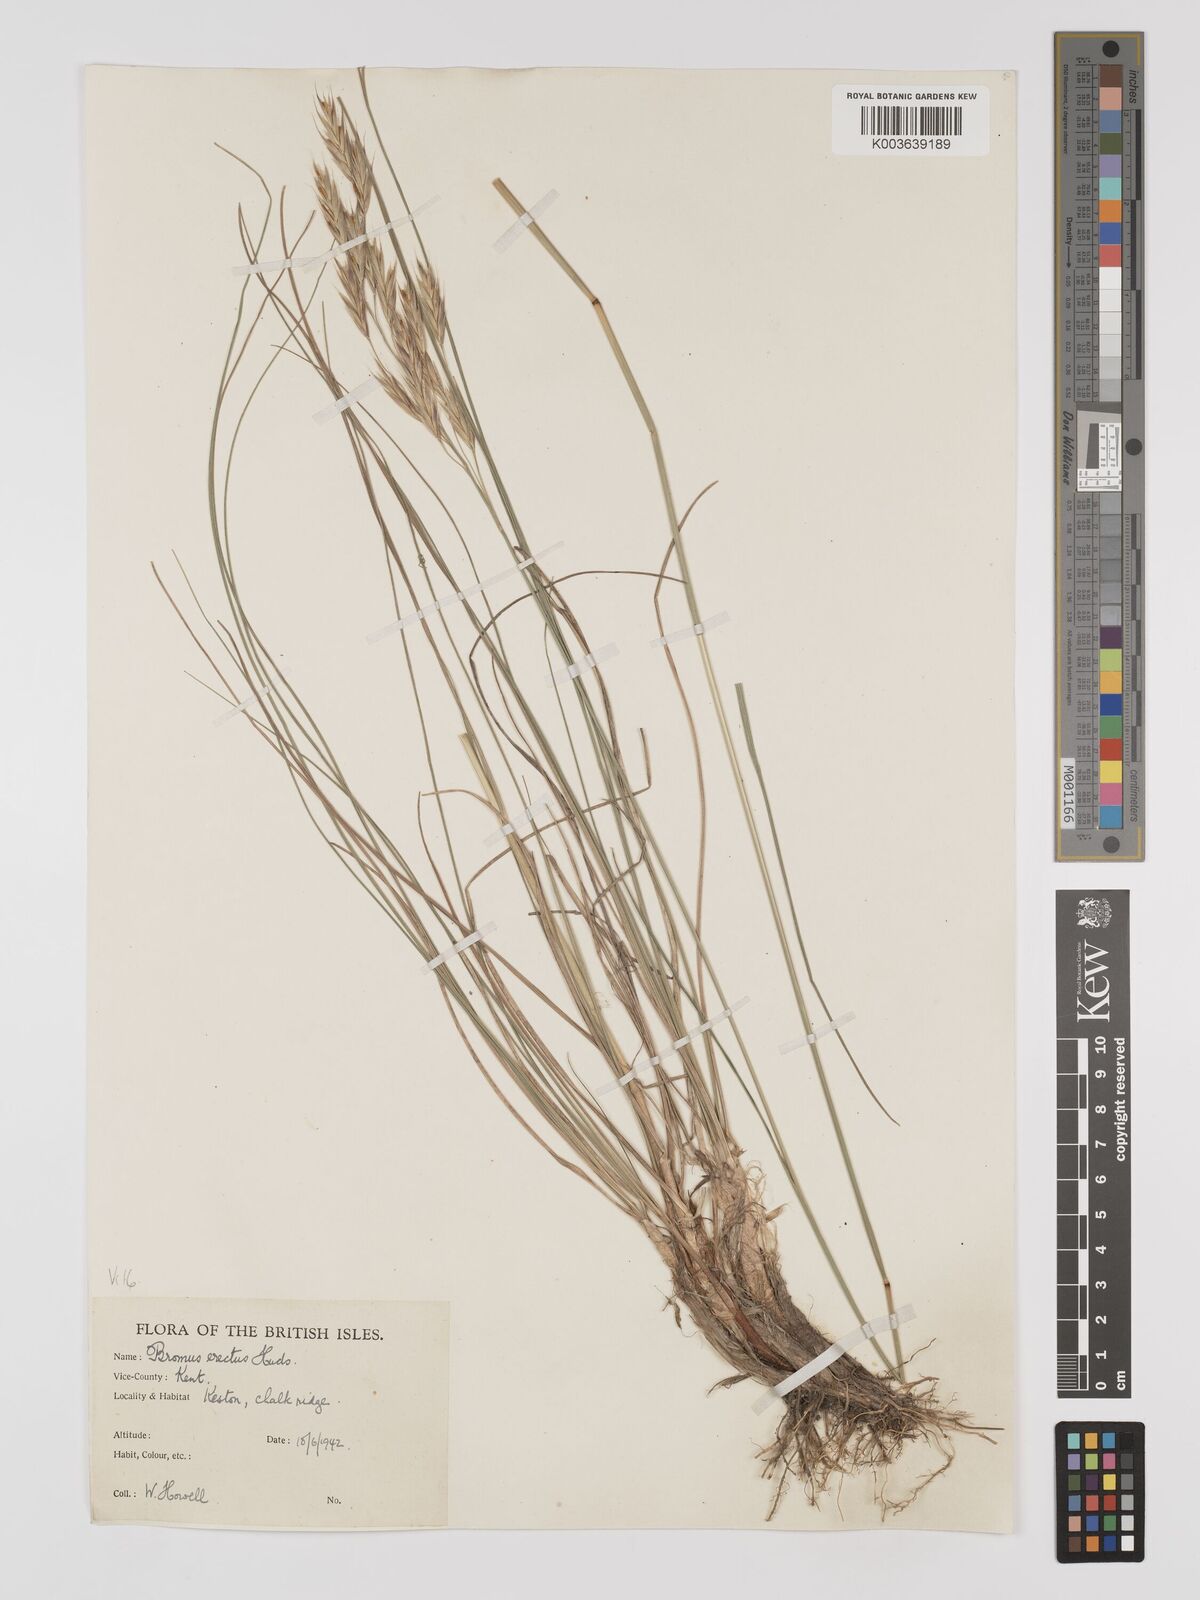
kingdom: Plantae
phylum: Tracheophyta
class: Liliopsida
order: Poales
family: Poaceae
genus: Bromus
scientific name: Bromus erectus
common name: Erect brome
